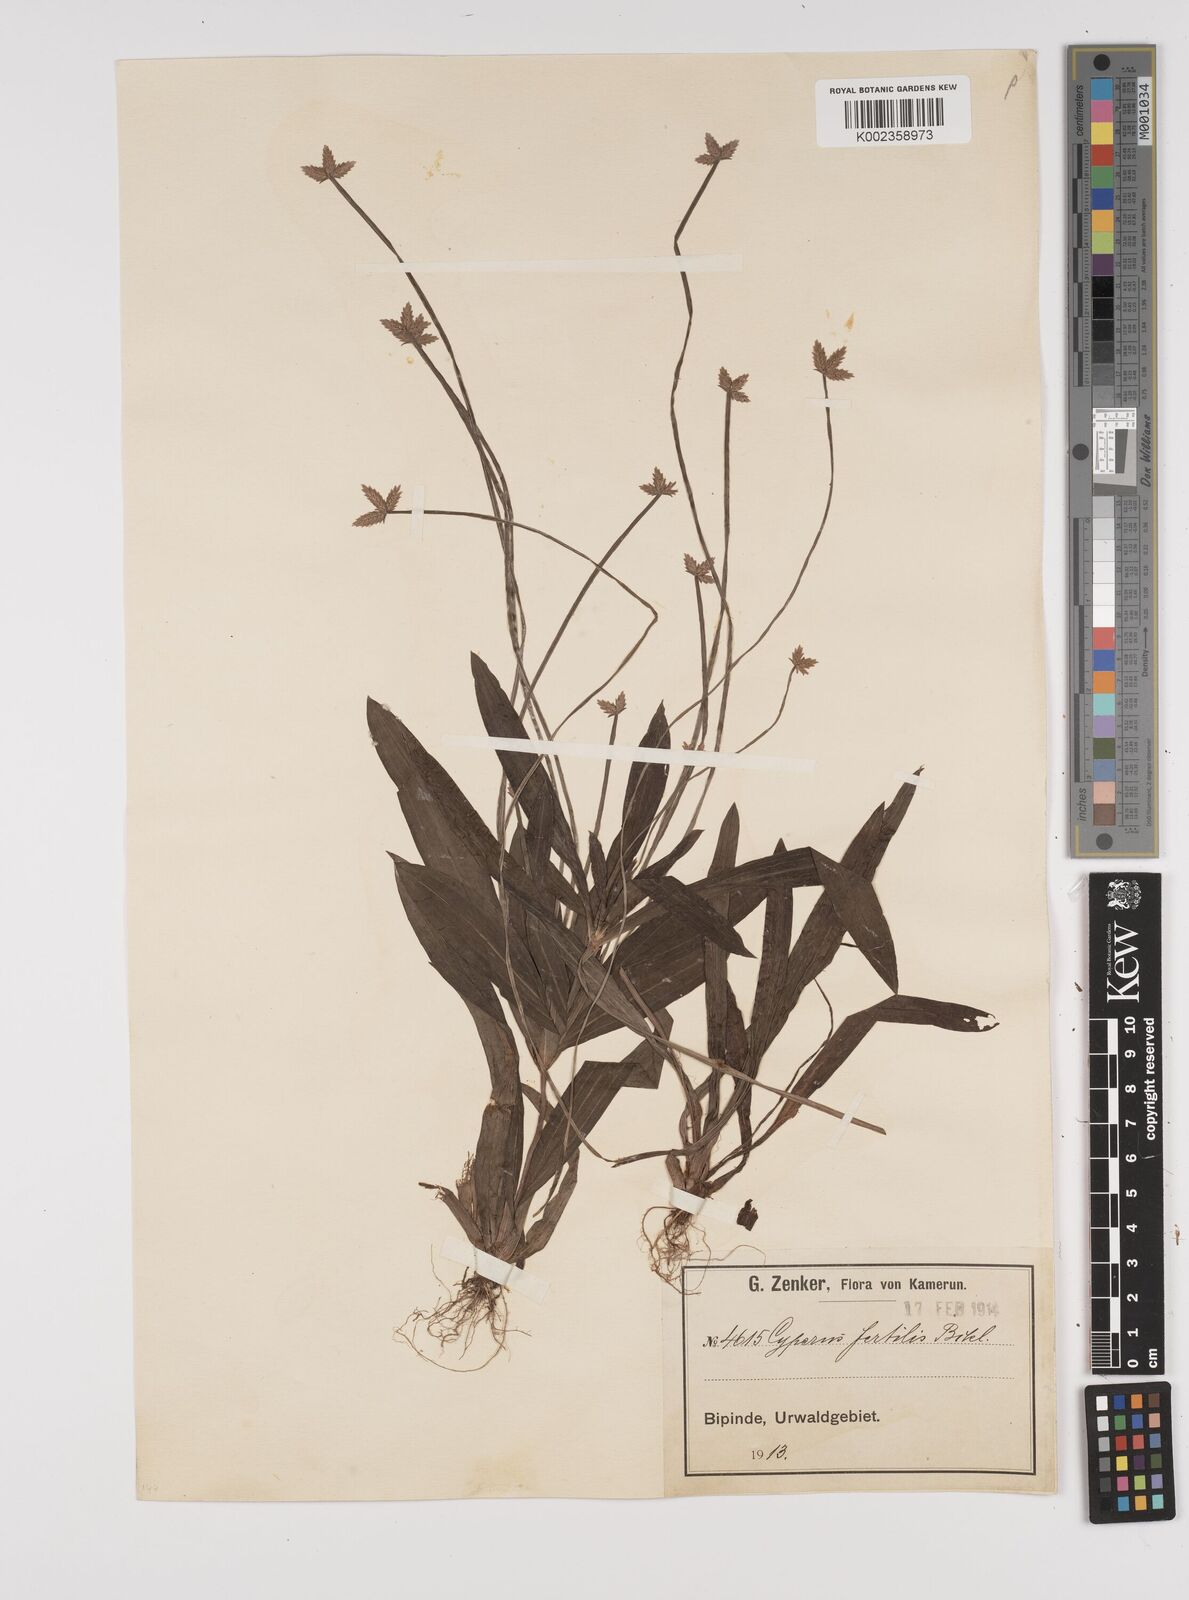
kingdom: Plantae
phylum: Tracheophyta
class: Liliopsida
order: Poales
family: Cyperaceae
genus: Cyperus
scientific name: Cyperus fertilis
